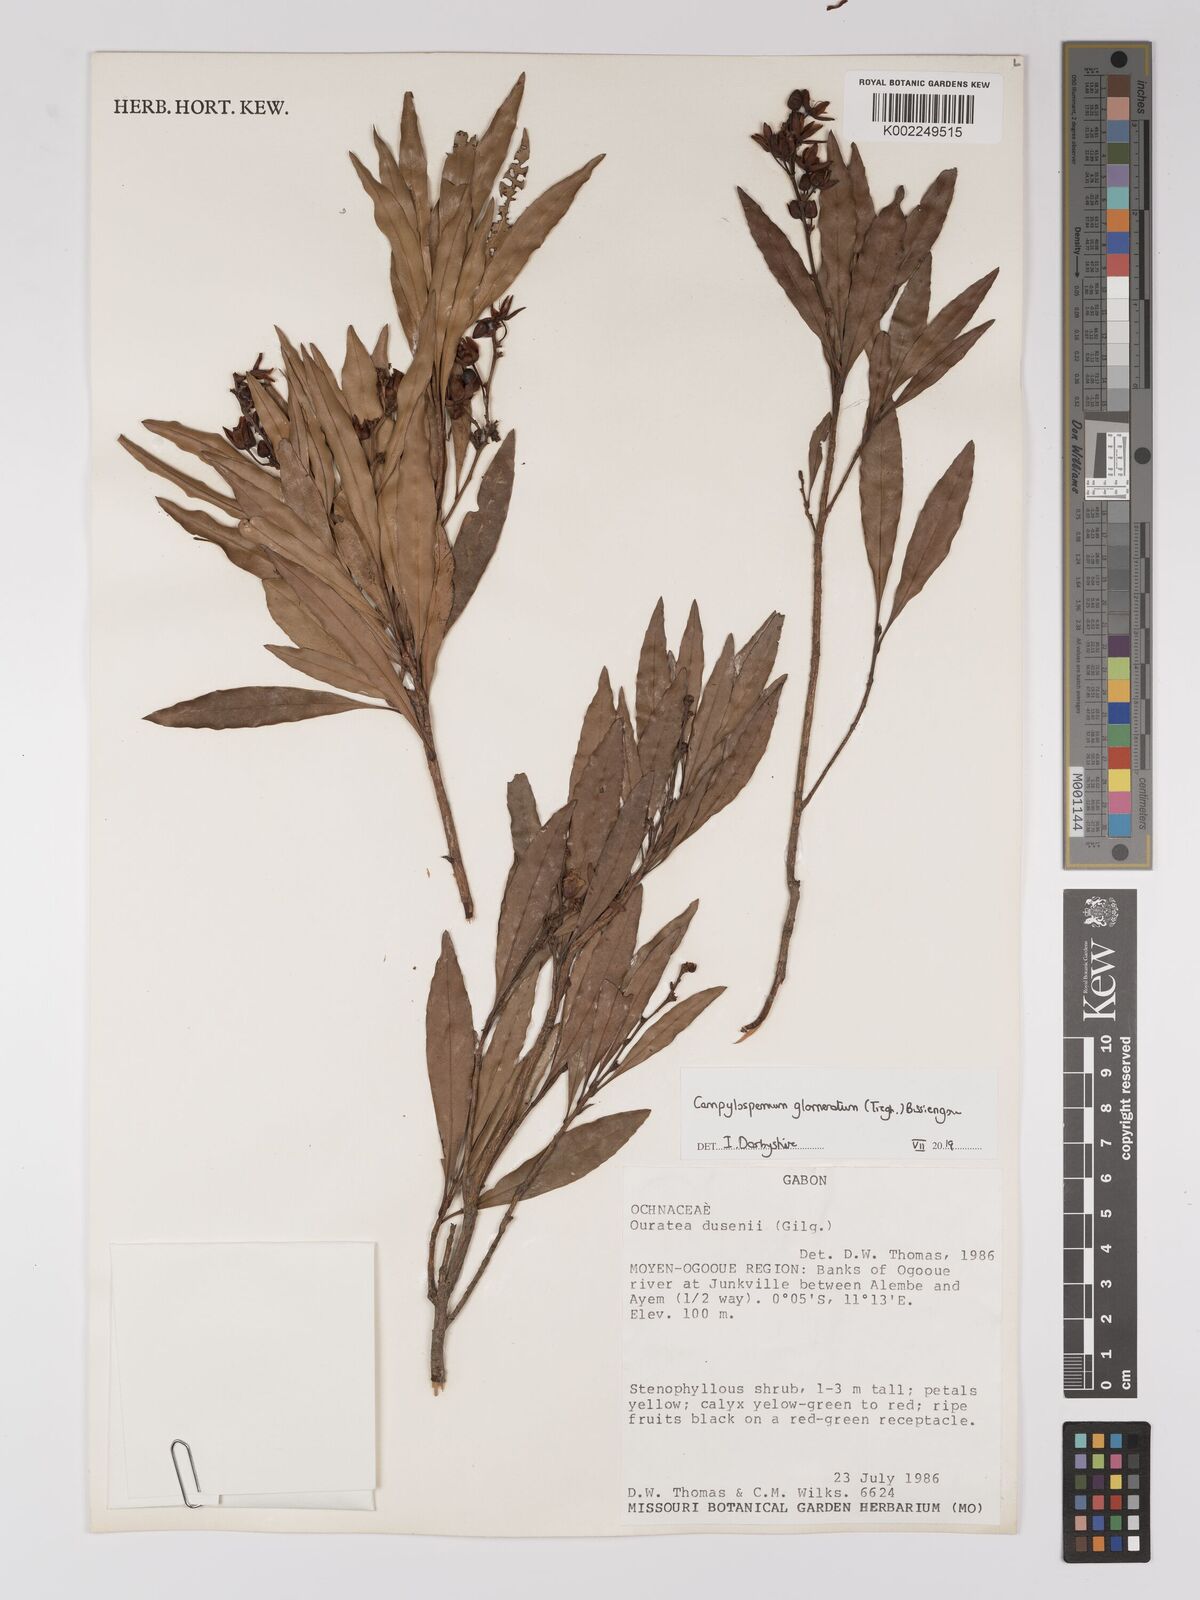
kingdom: Plantae
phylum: Tracheophyta
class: Magnoliopsida
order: Malpighiales
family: Ochnaceae
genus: Campylospermum
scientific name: Campylospermum glomeratum
